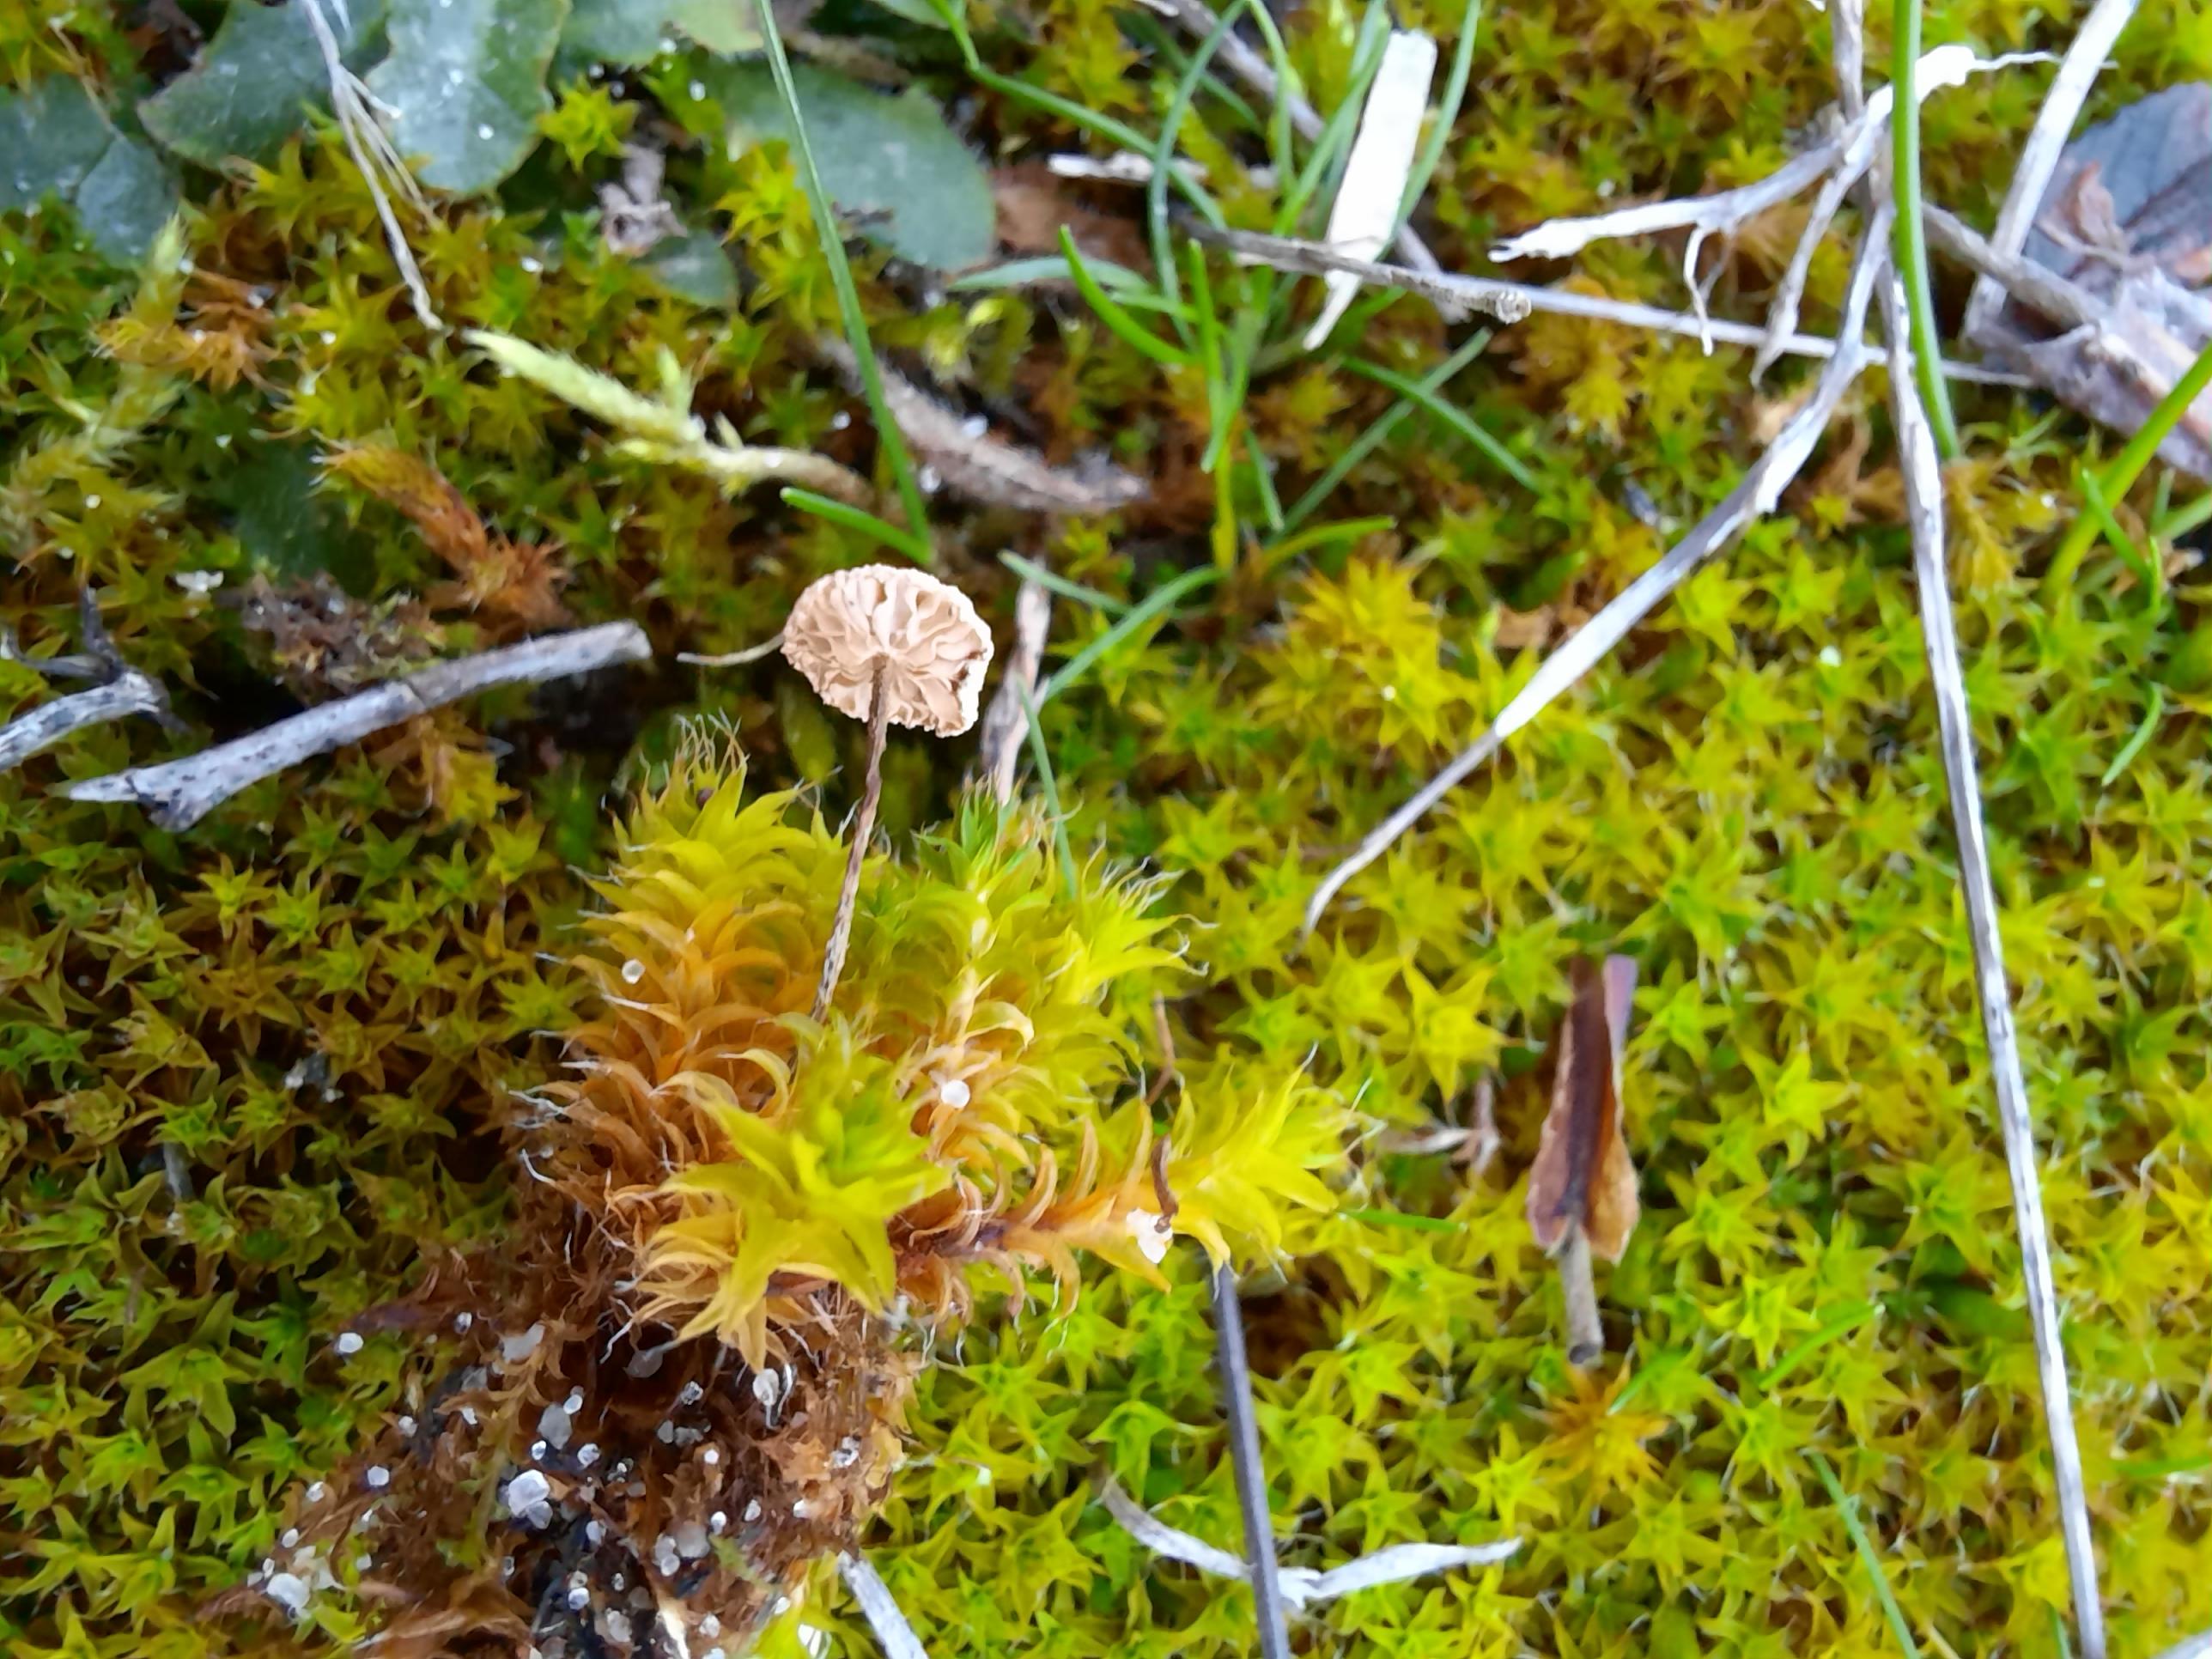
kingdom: Fungi
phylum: Basidiomycota
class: Agaricomycetes
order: Agaricales
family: Marasmiaceae
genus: Crinipellis
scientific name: Crinipellis scabella
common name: børstefod
